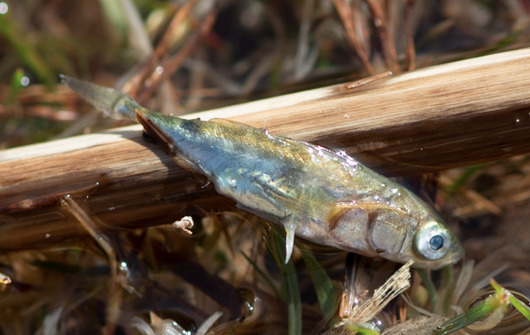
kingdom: Animalia
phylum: Chordata
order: Gasterosteiformes
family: Gasterosteidae
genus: Gasterosteus
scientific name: Gasterosteus aculeatus
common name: Trepigget hundestejle
